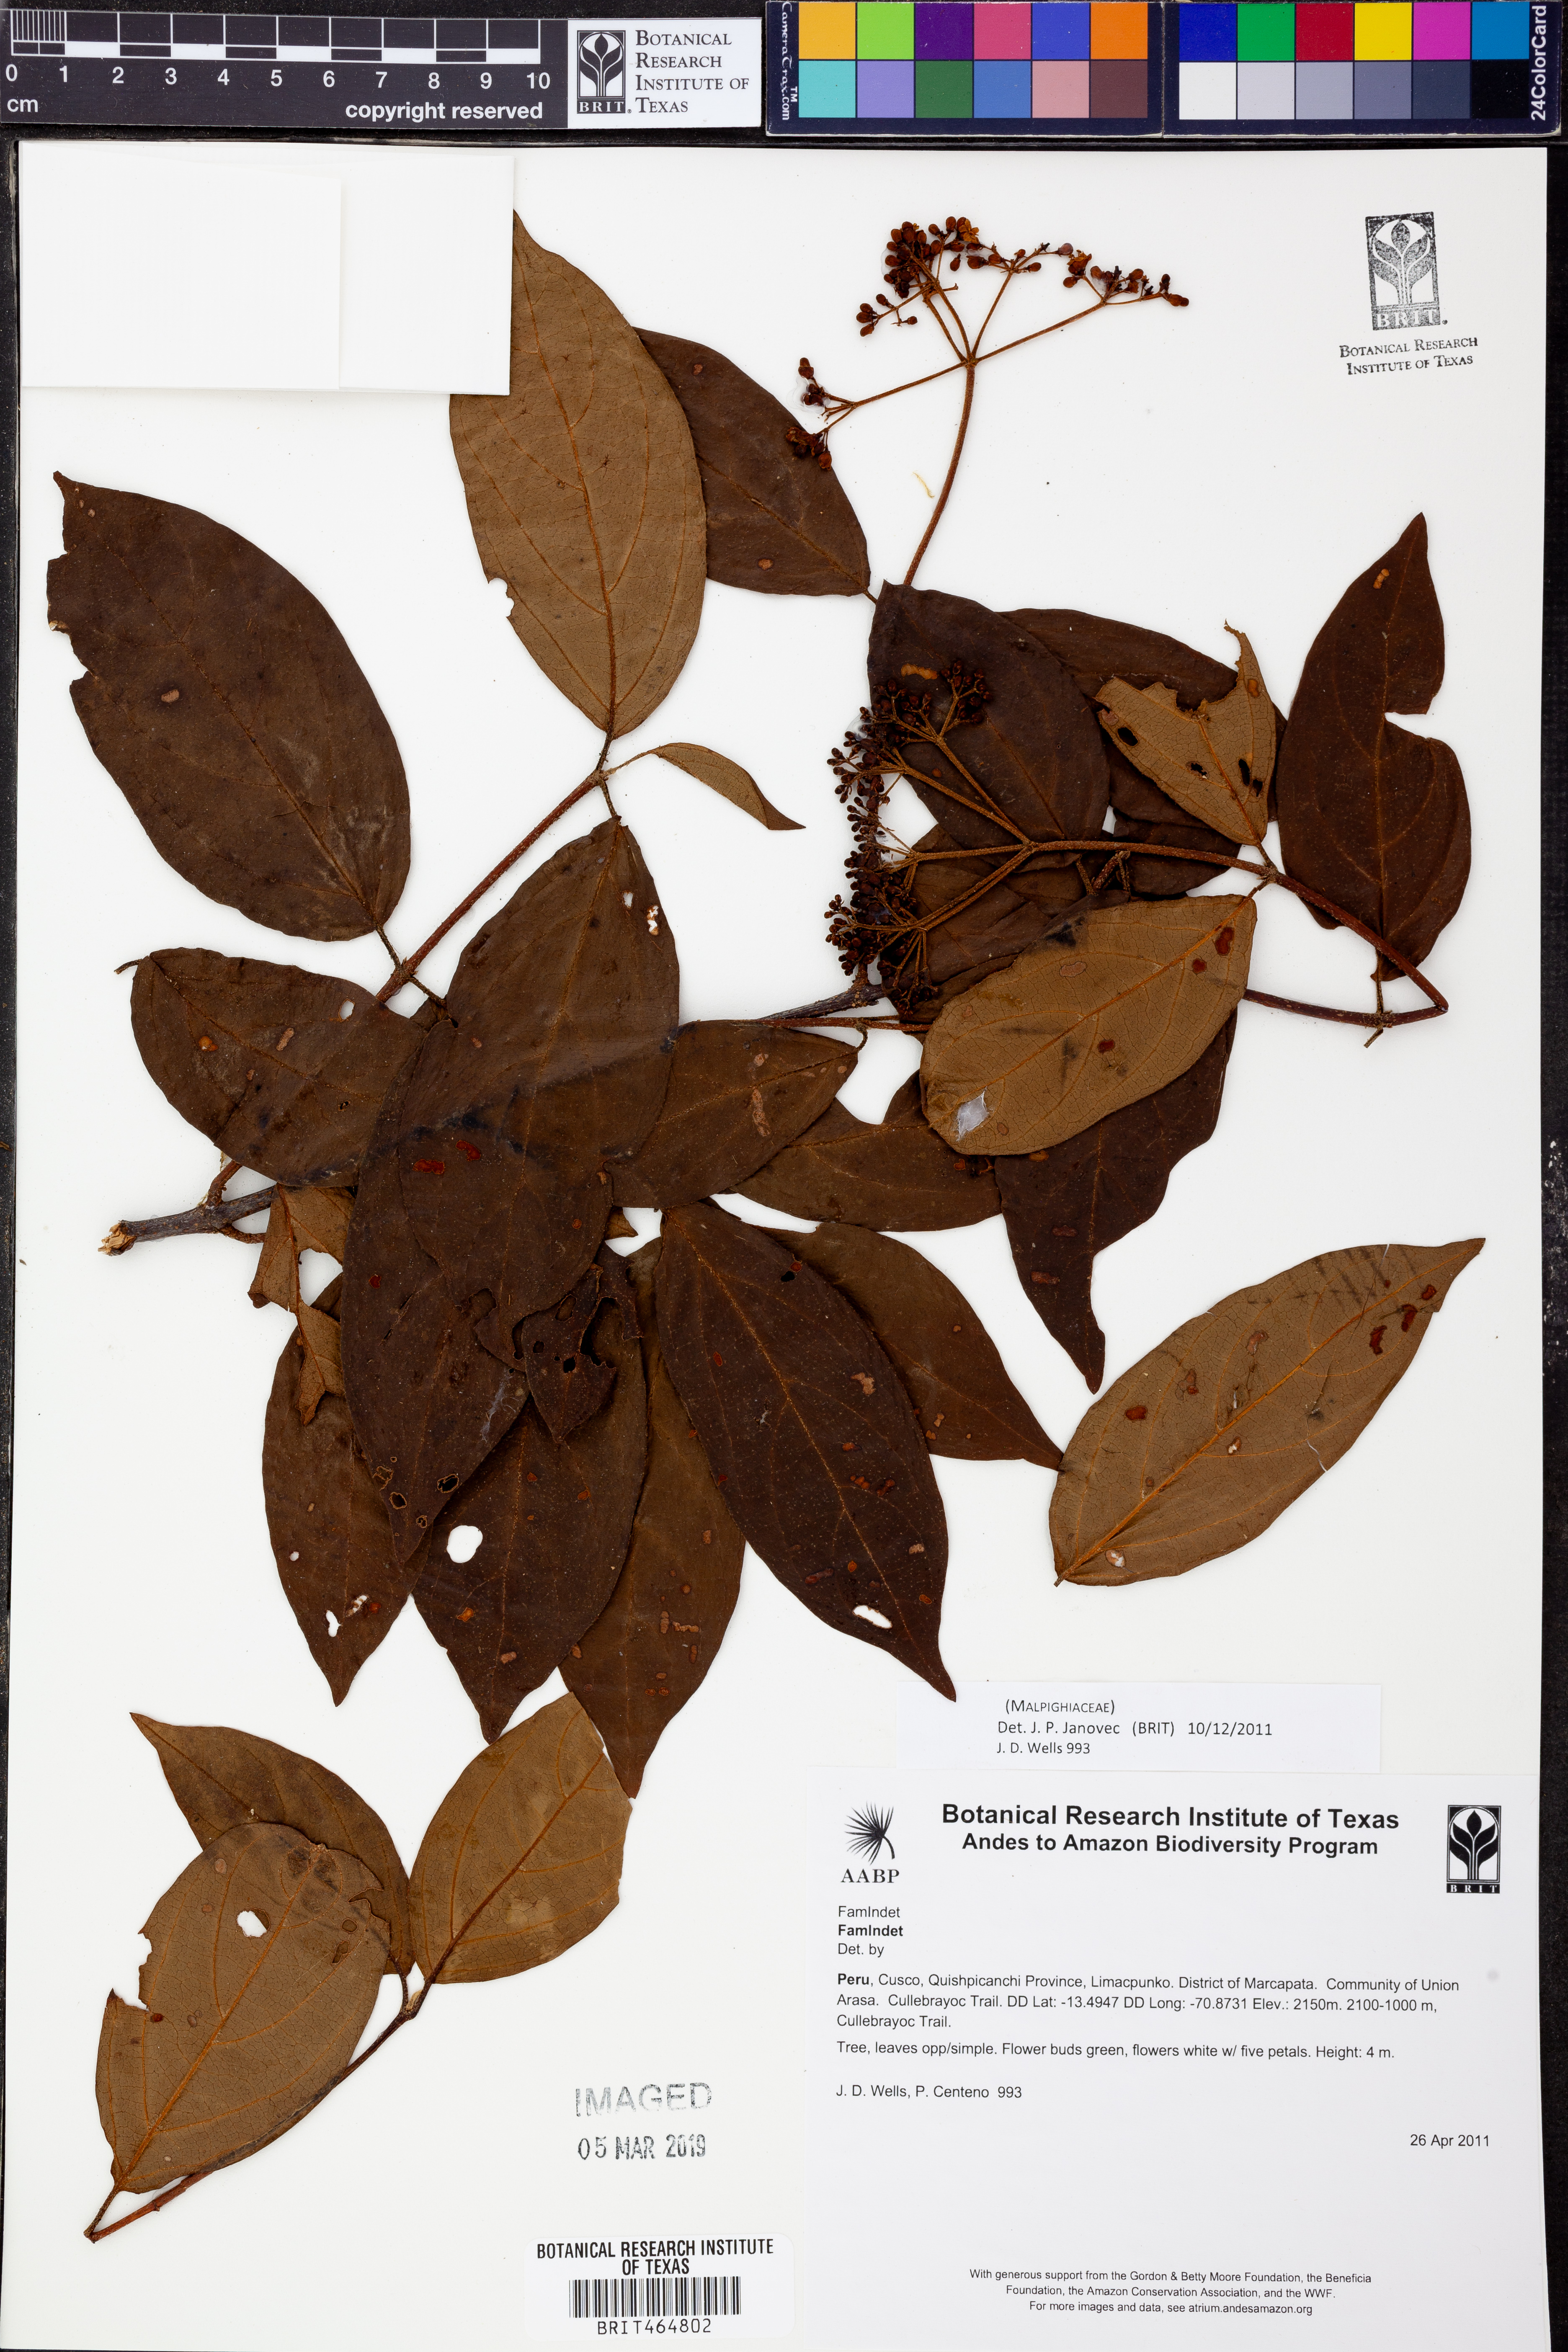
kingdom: Plantae
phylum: Tracheophyta
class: Magnoliopsida
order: Malpighiales
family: Malpighiaceae
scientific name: Malpighiaceae
